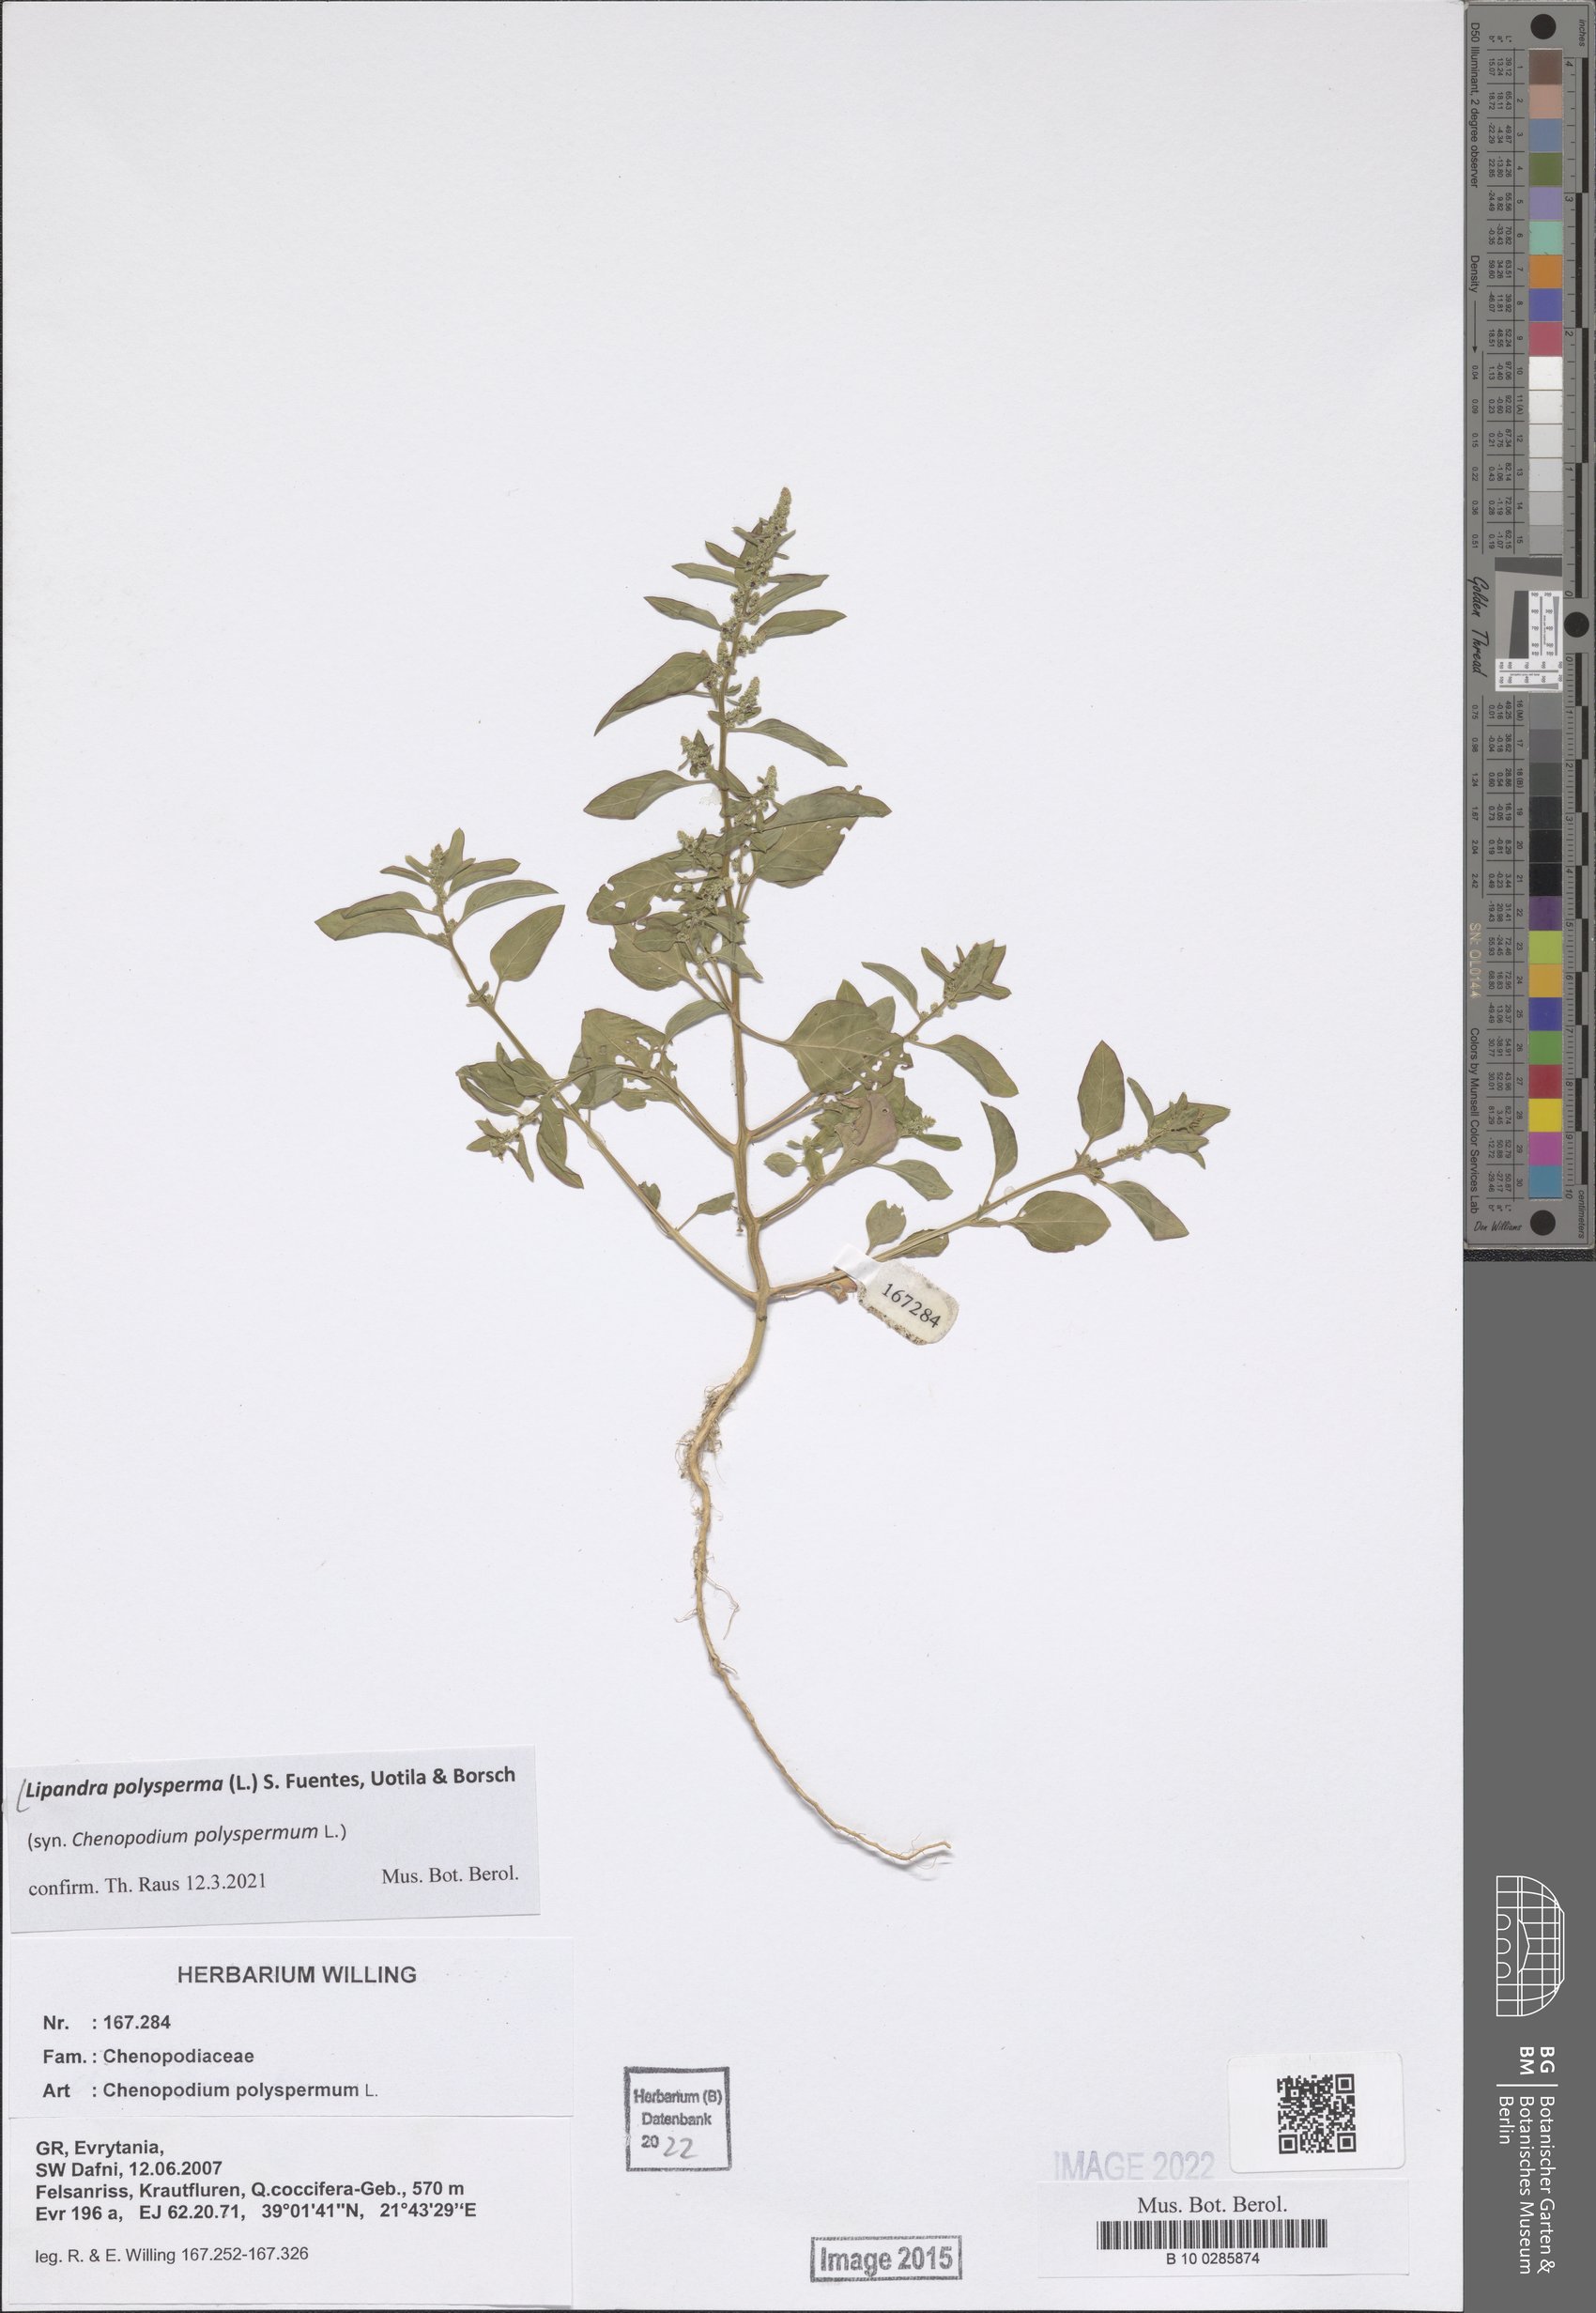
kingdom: Plantae
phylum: Tracheophyta
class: Magnoliopsida
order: Caryophyllales
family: Amaranthaceae
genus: Lipandra
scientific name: Lipandra polysperma
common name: Many-seed goosefoot
